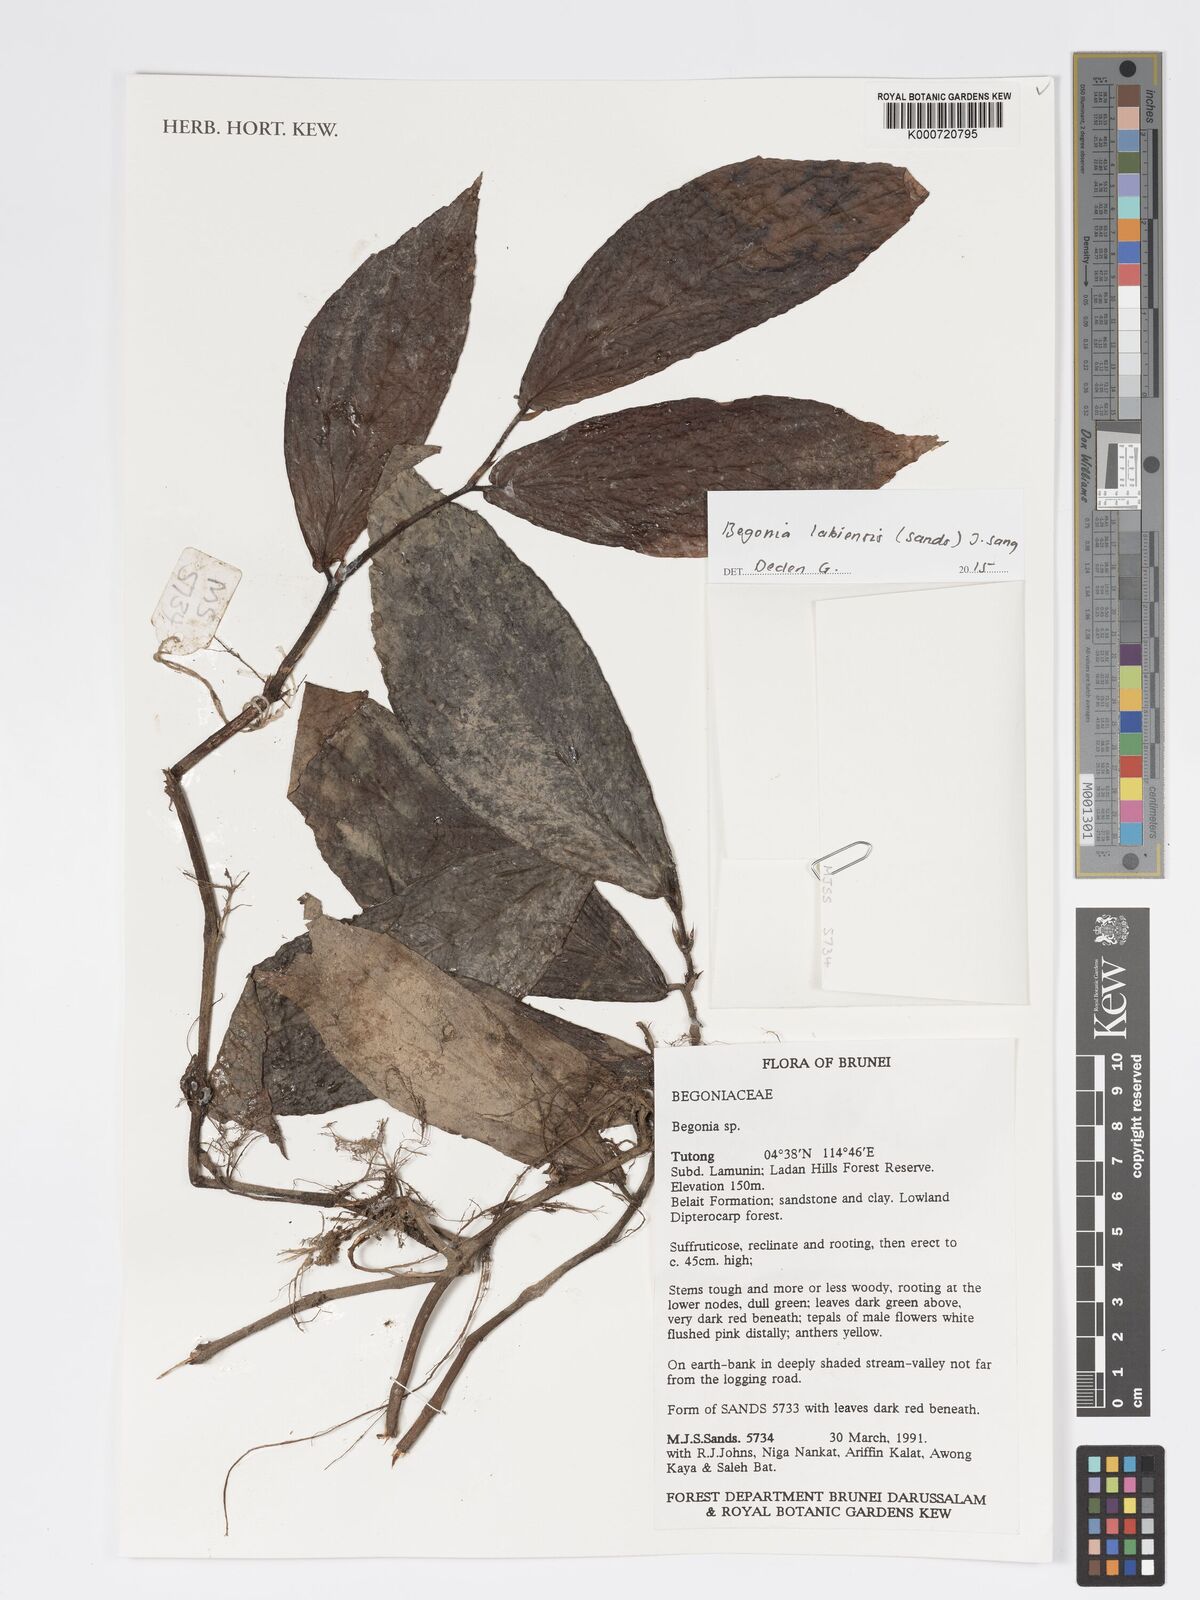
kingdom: Plantae
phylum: Tracheophyta
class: Magnoliopsida
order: Cucurbitales
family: Begoniaceae
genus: Begonia
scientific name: Begonia labiensis
